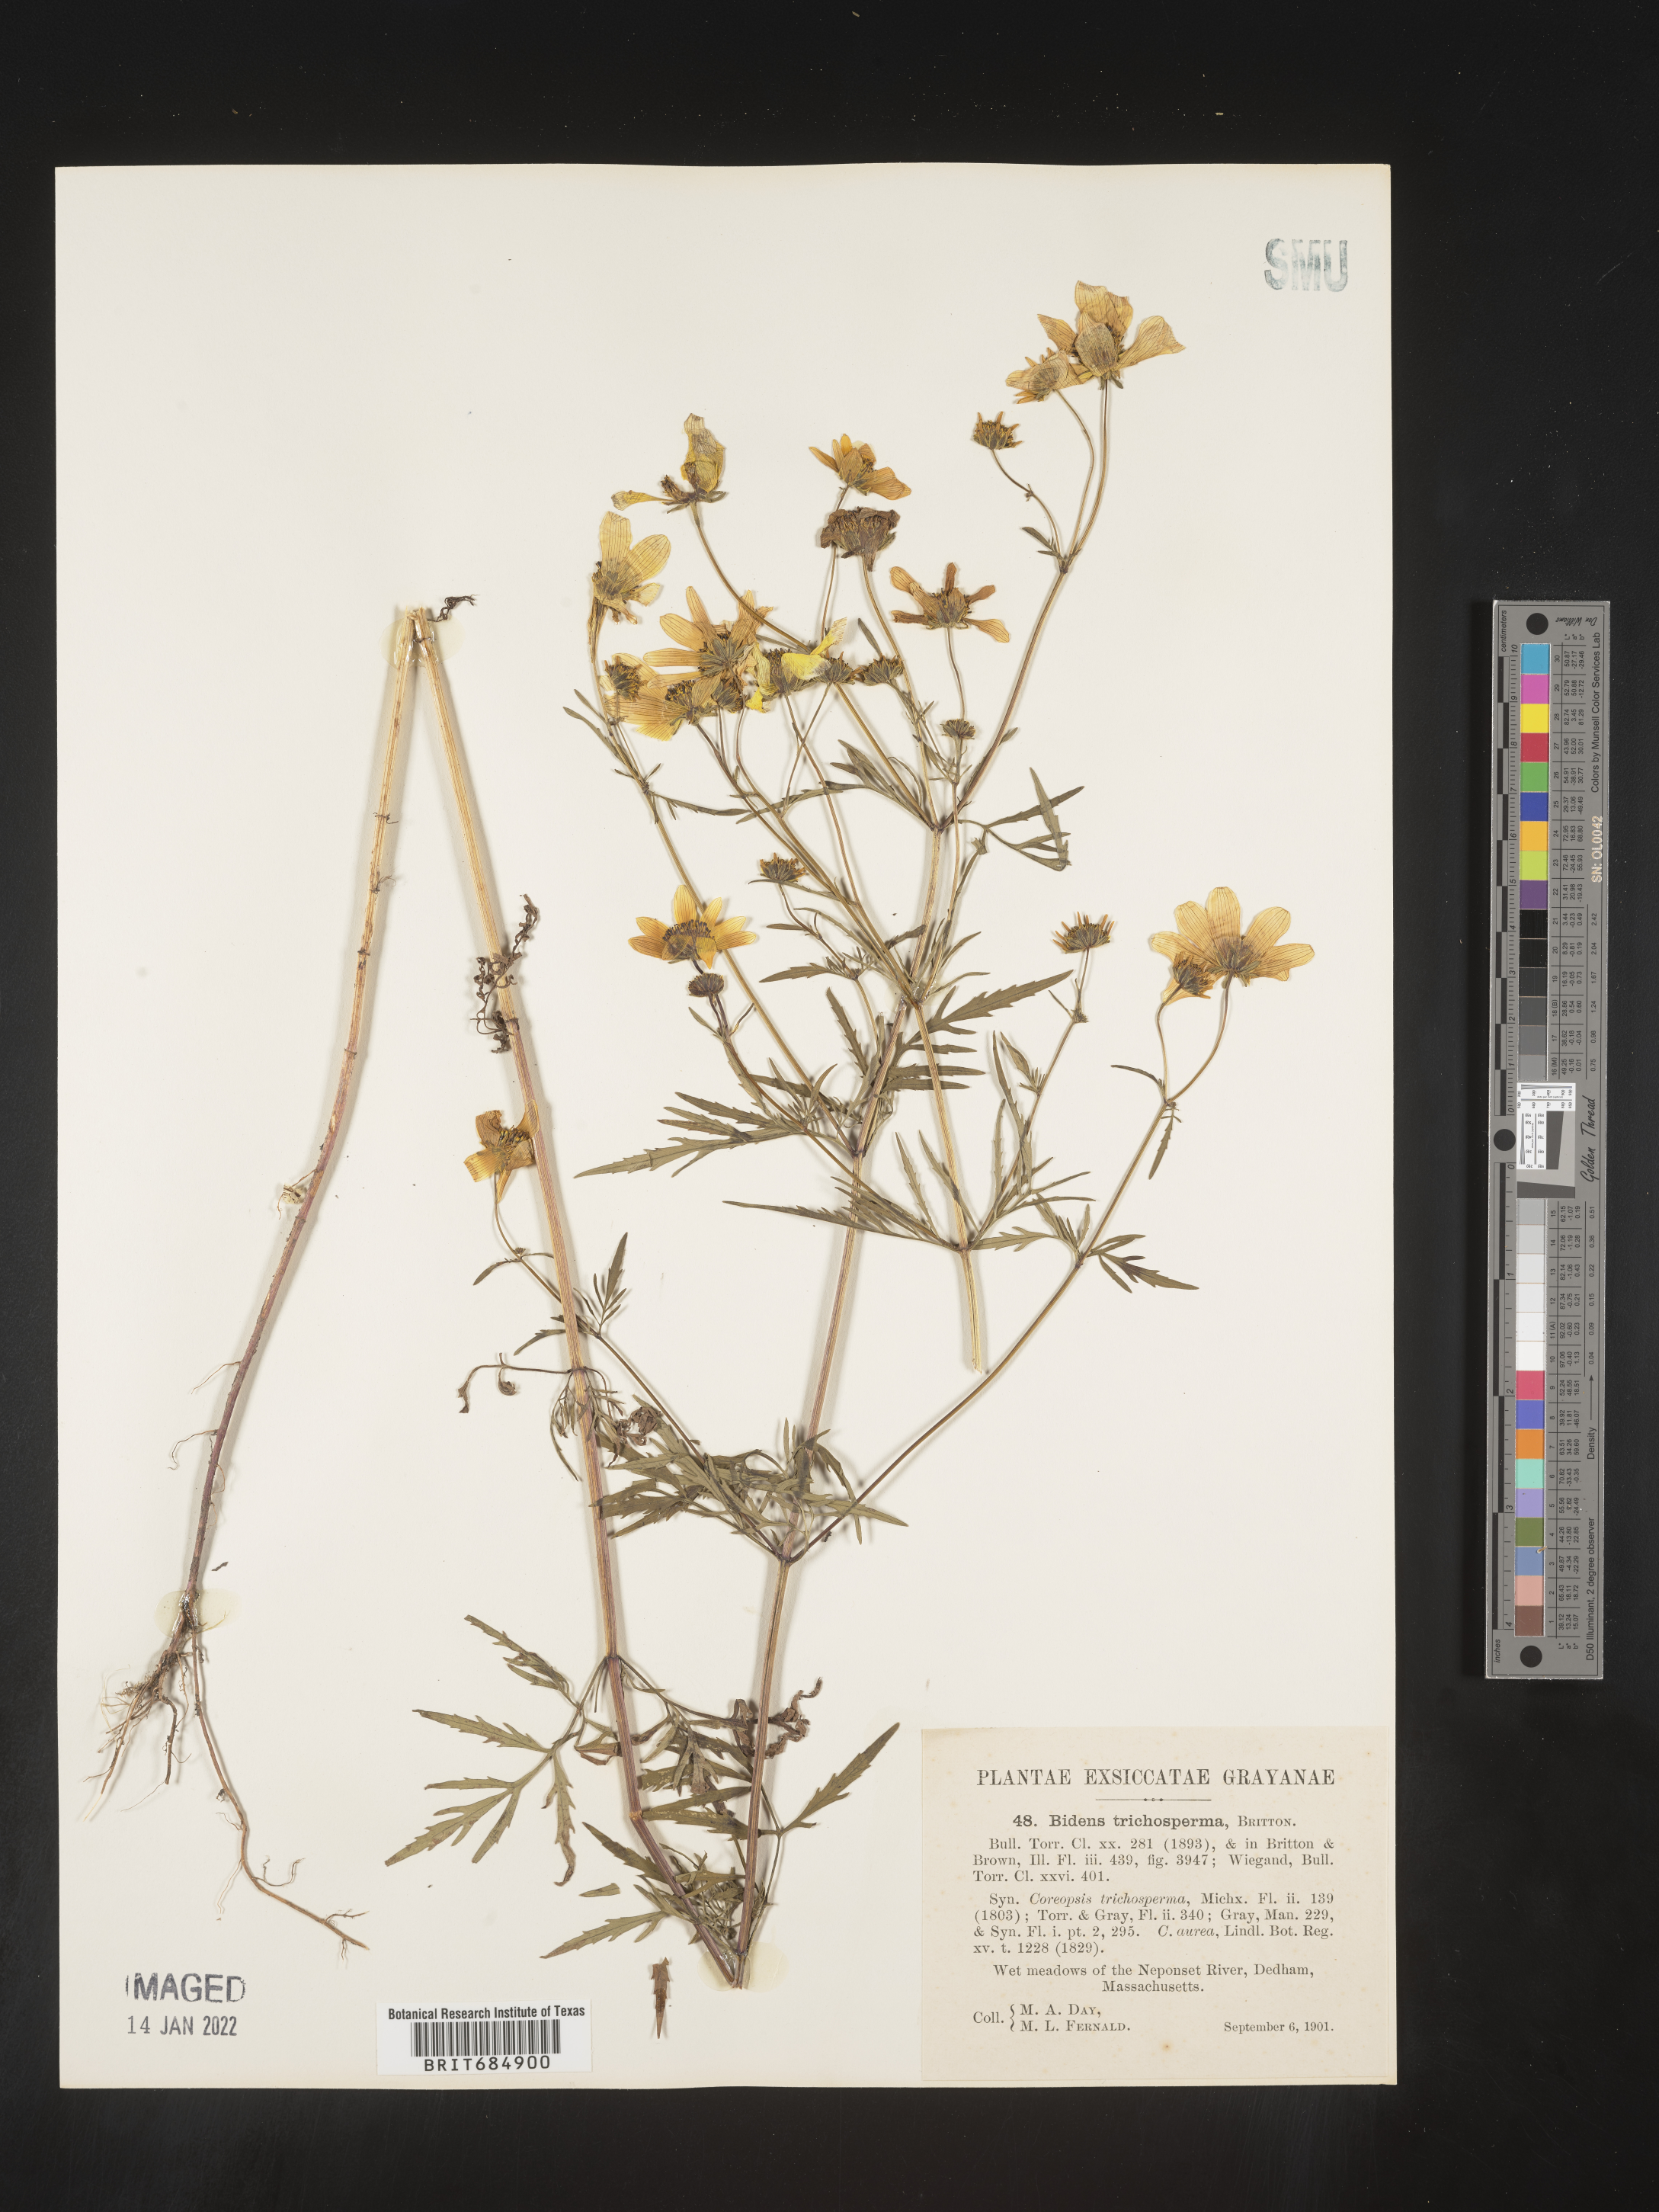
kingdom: Plantae
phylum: Tracheophyta
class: Magnoliopsida
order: Asterales
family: Asteraceae
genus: Bidens
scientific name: Bidens trichosperma
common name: Crowned beggarticks
